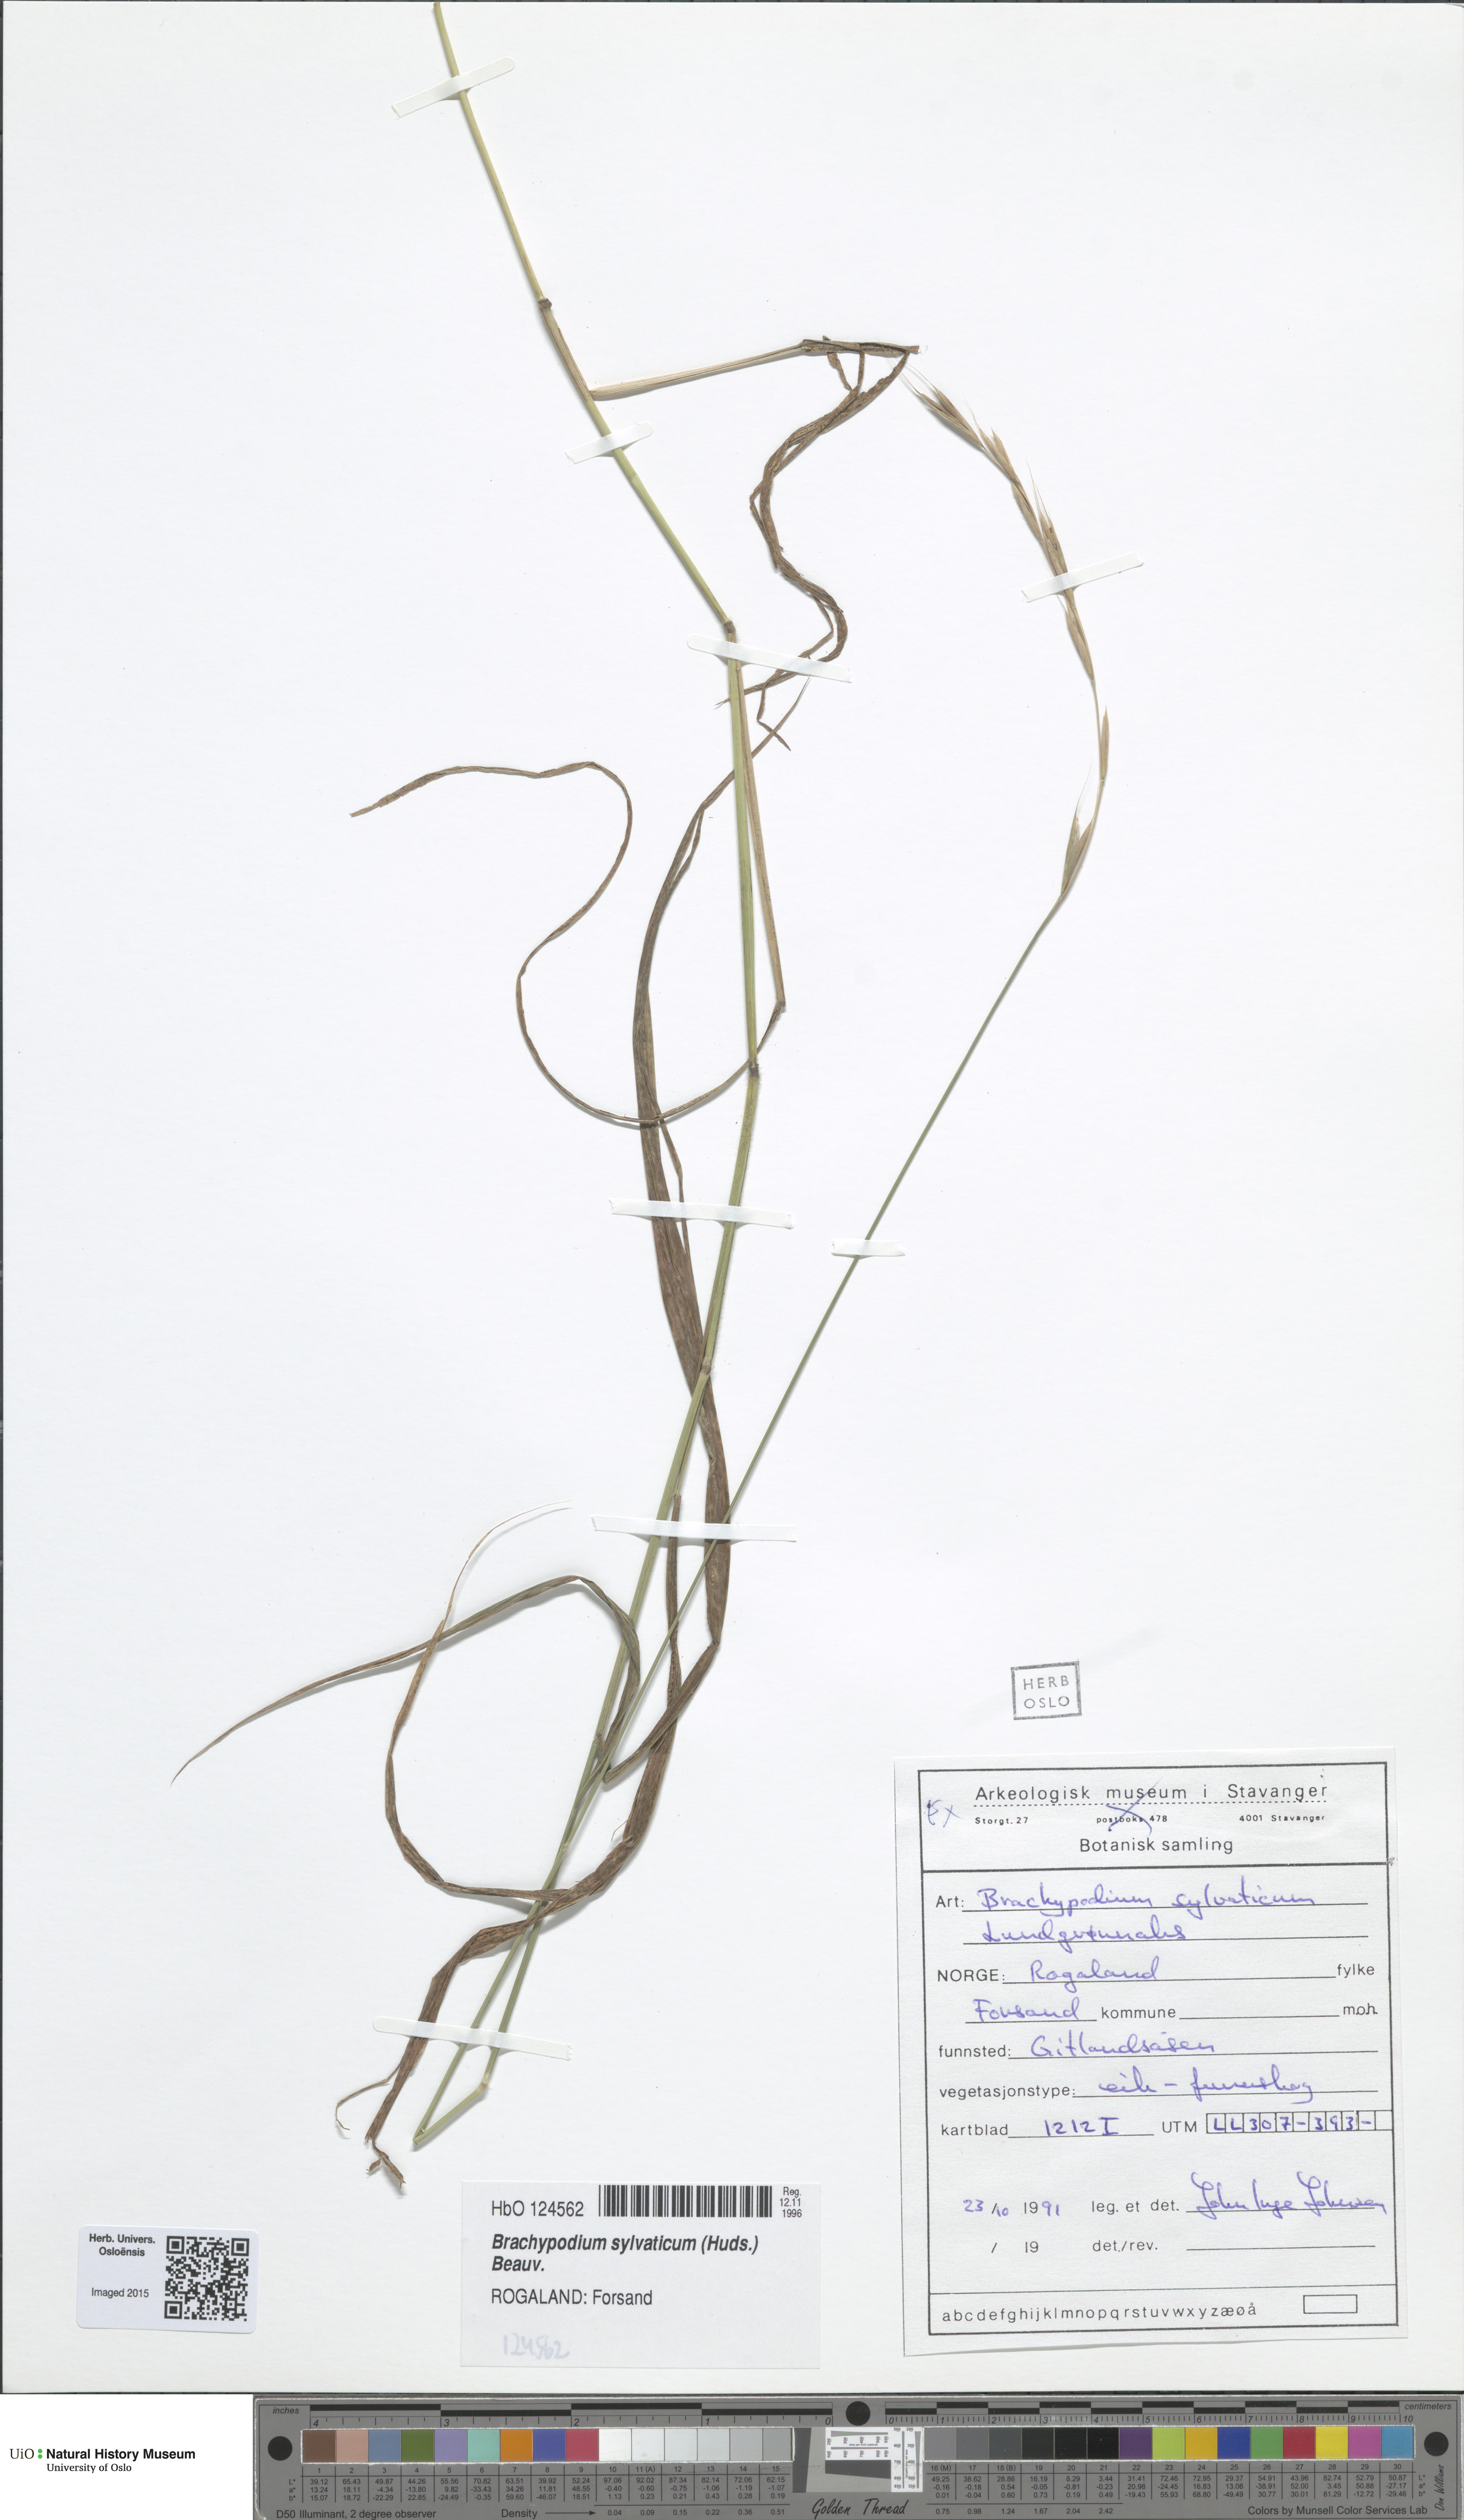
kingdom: Plantae
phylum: Tracheophyta
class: Liliopsida
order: Poales
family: Poaceae
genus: Brachypodium
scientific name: Brachypodium sylvaticum
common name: False-brome
